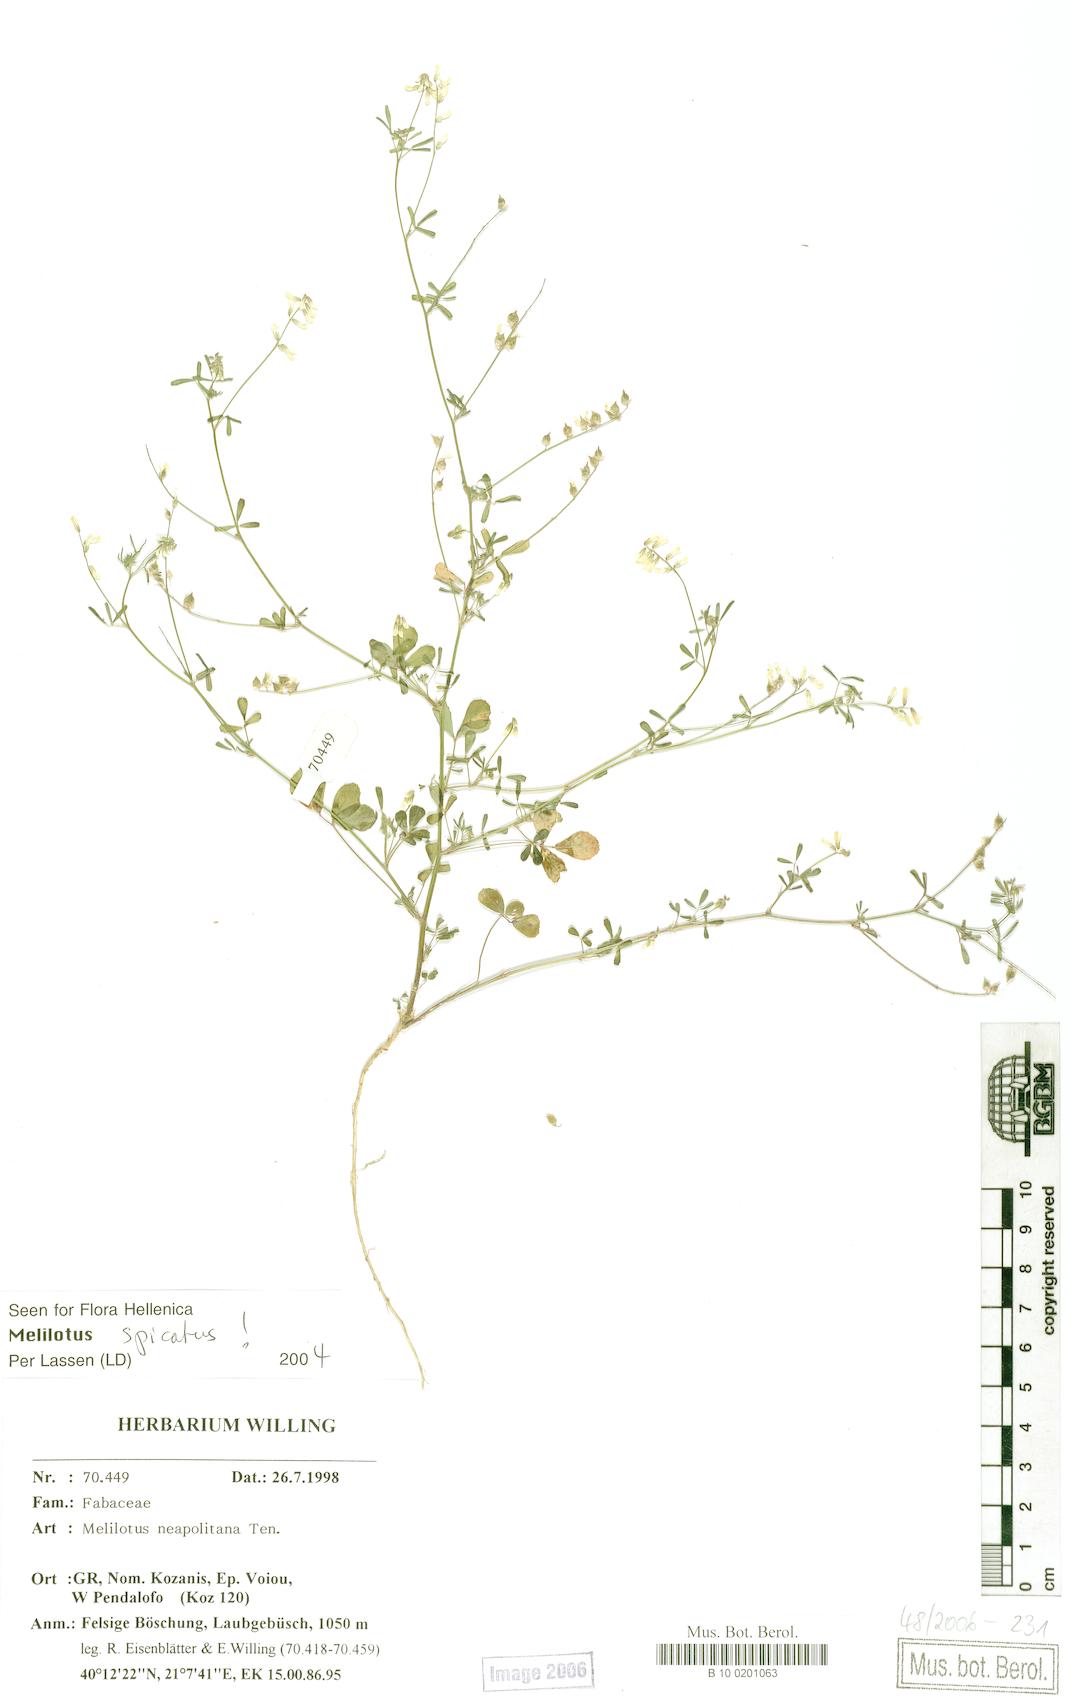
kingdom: Plantae
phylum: Tracheophyta
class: Magnoliopsida
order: Fabales
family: Fabaceae
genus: Melilotus
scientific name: Melilotus neapolitanus
